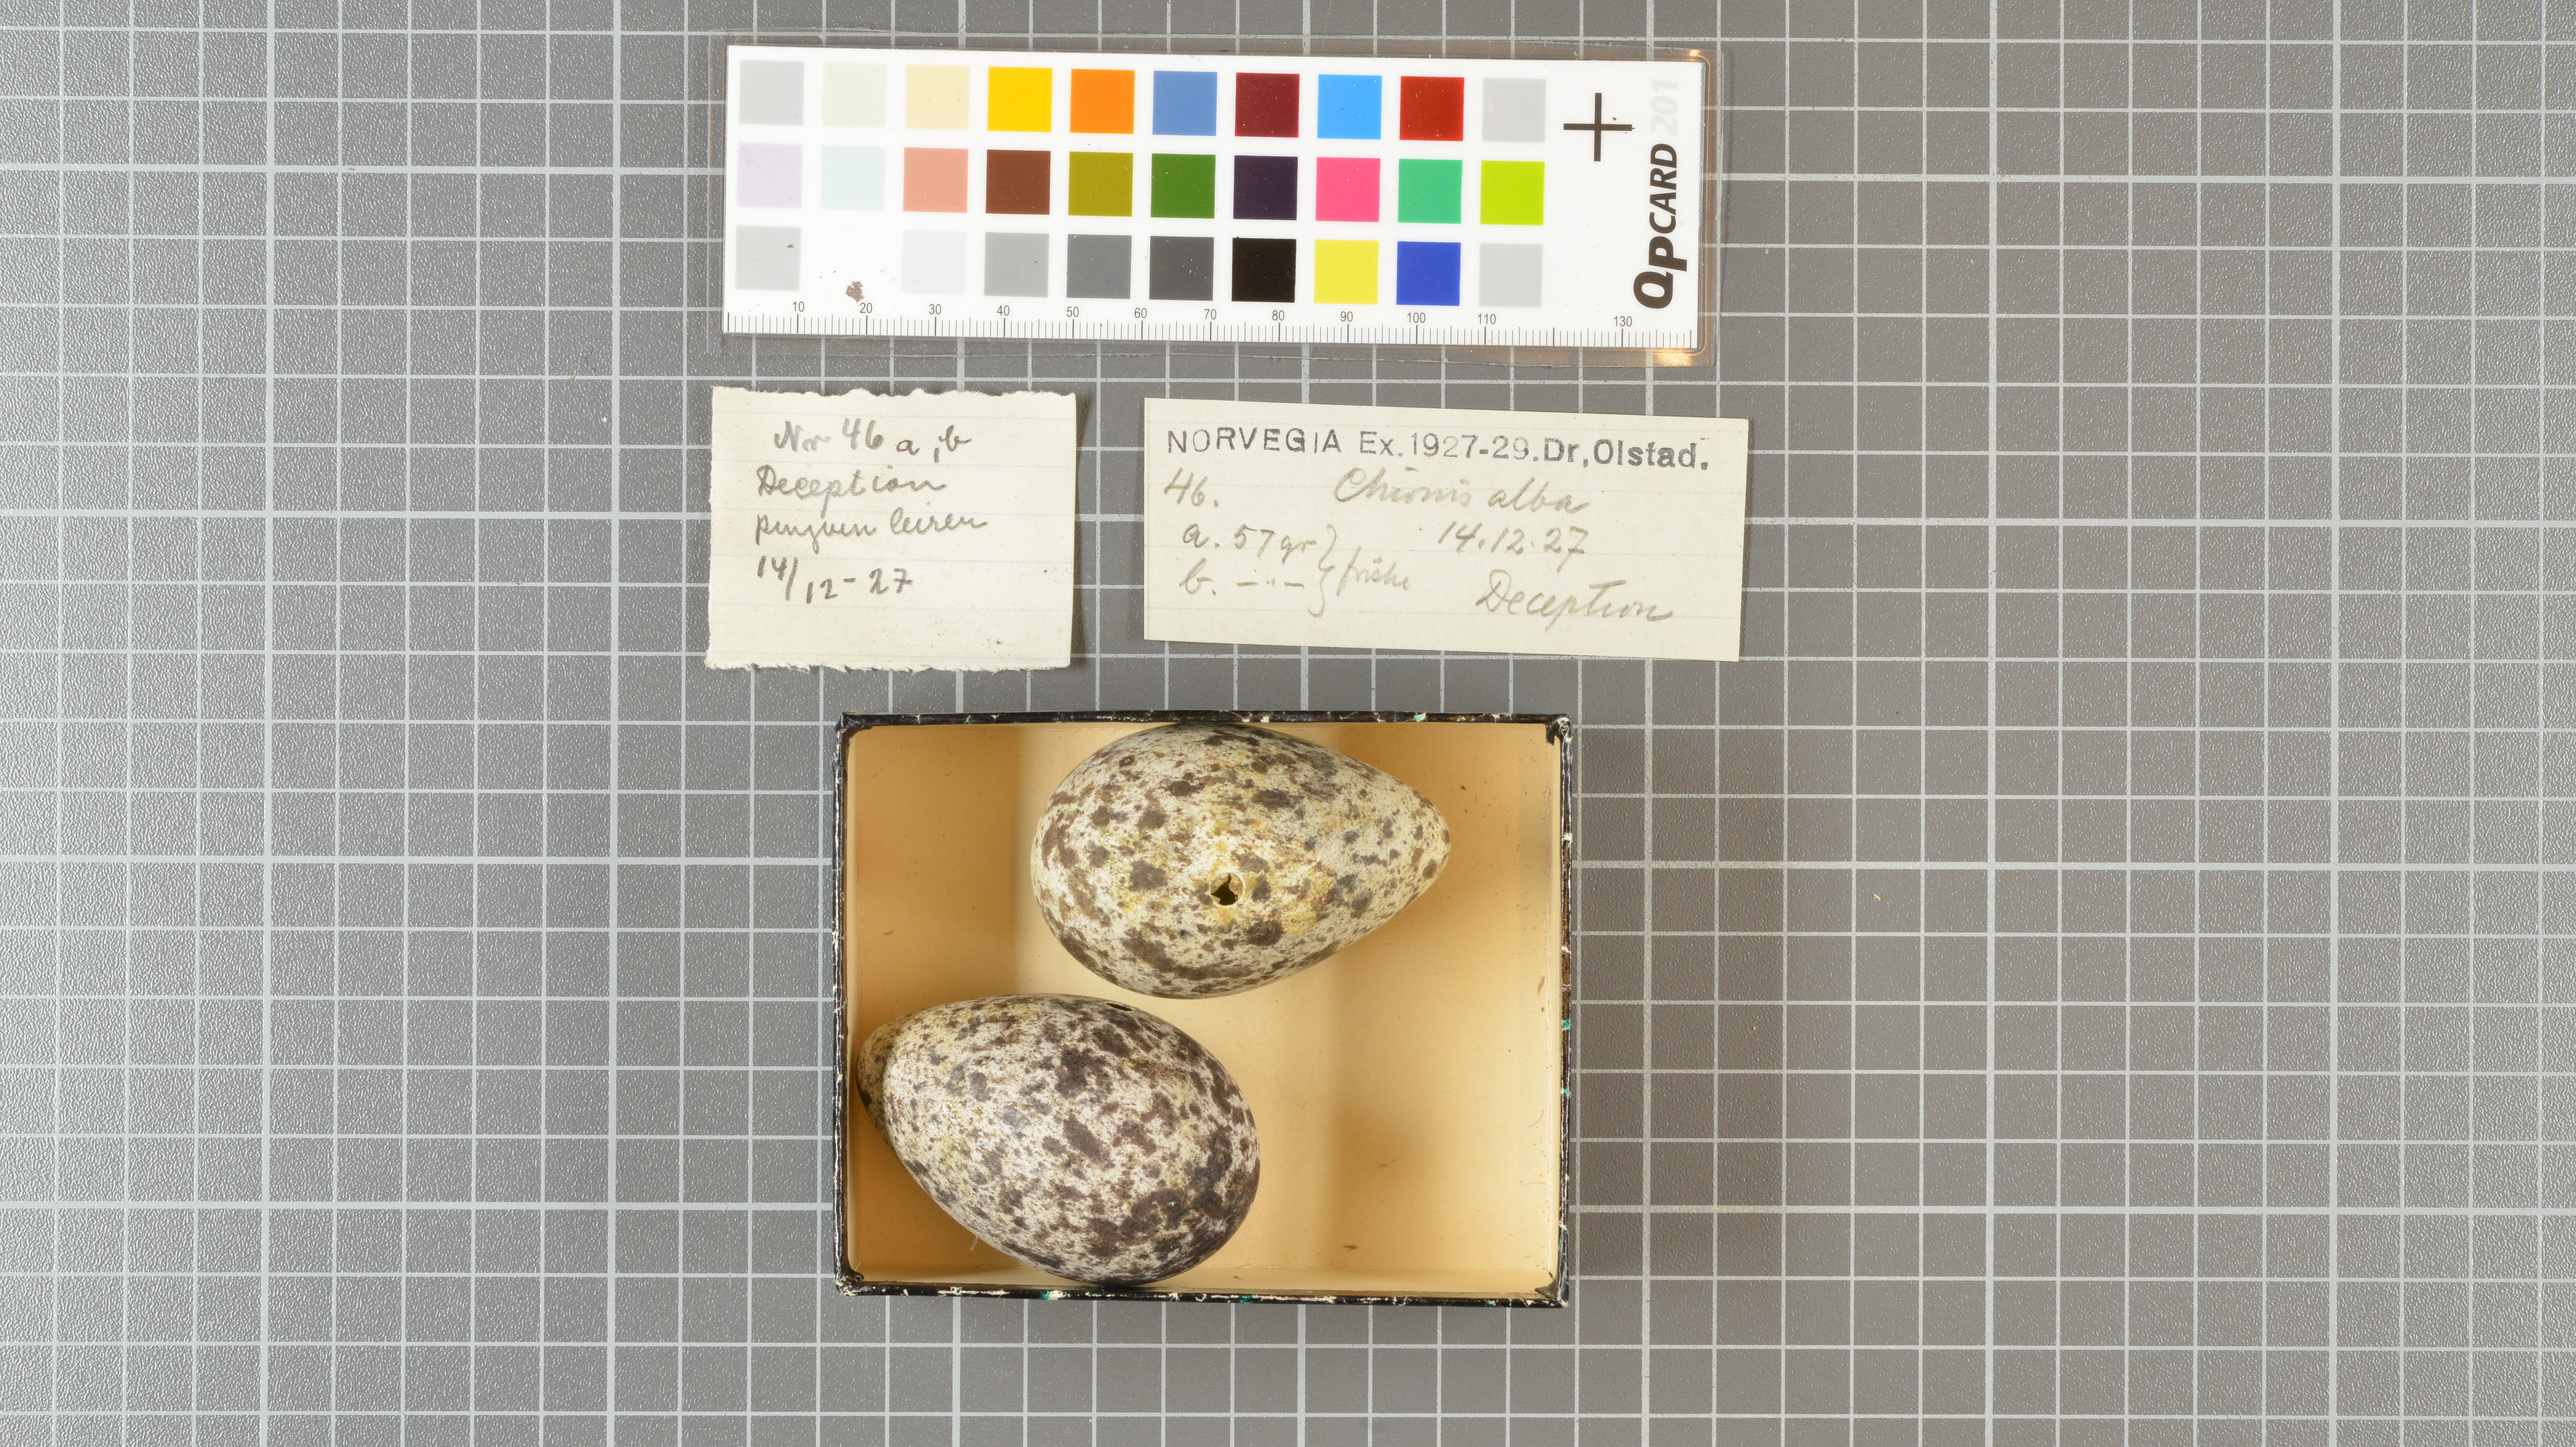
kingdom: Animalia
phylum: Chordata
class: Aves
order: Charadriiformes
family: Chionidae
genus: Chionis
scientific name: Chionis albus
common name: Snowy sheathbill
